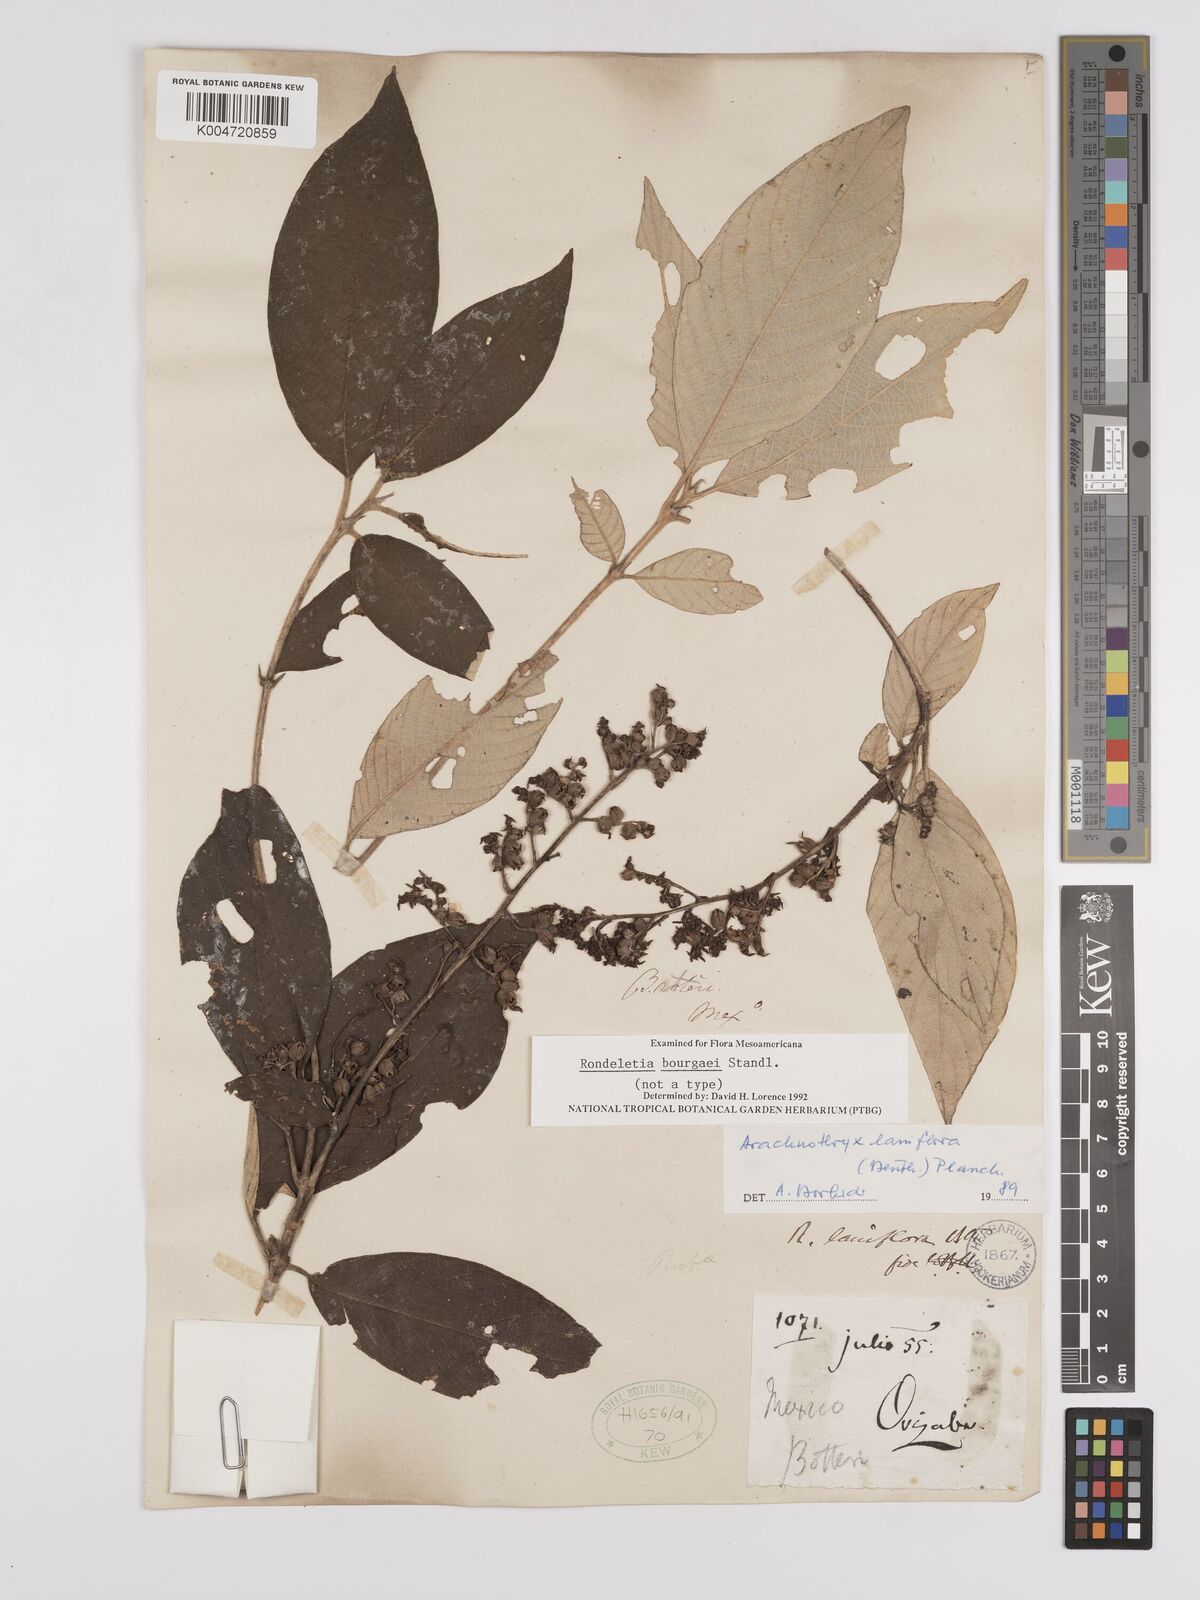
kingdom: Plantae
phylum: Tracheophyta
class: Magnoliopsida
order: Gentianales
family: Rubiaceae
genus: Arachnothryx
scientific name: Arachnothryx laniflora
